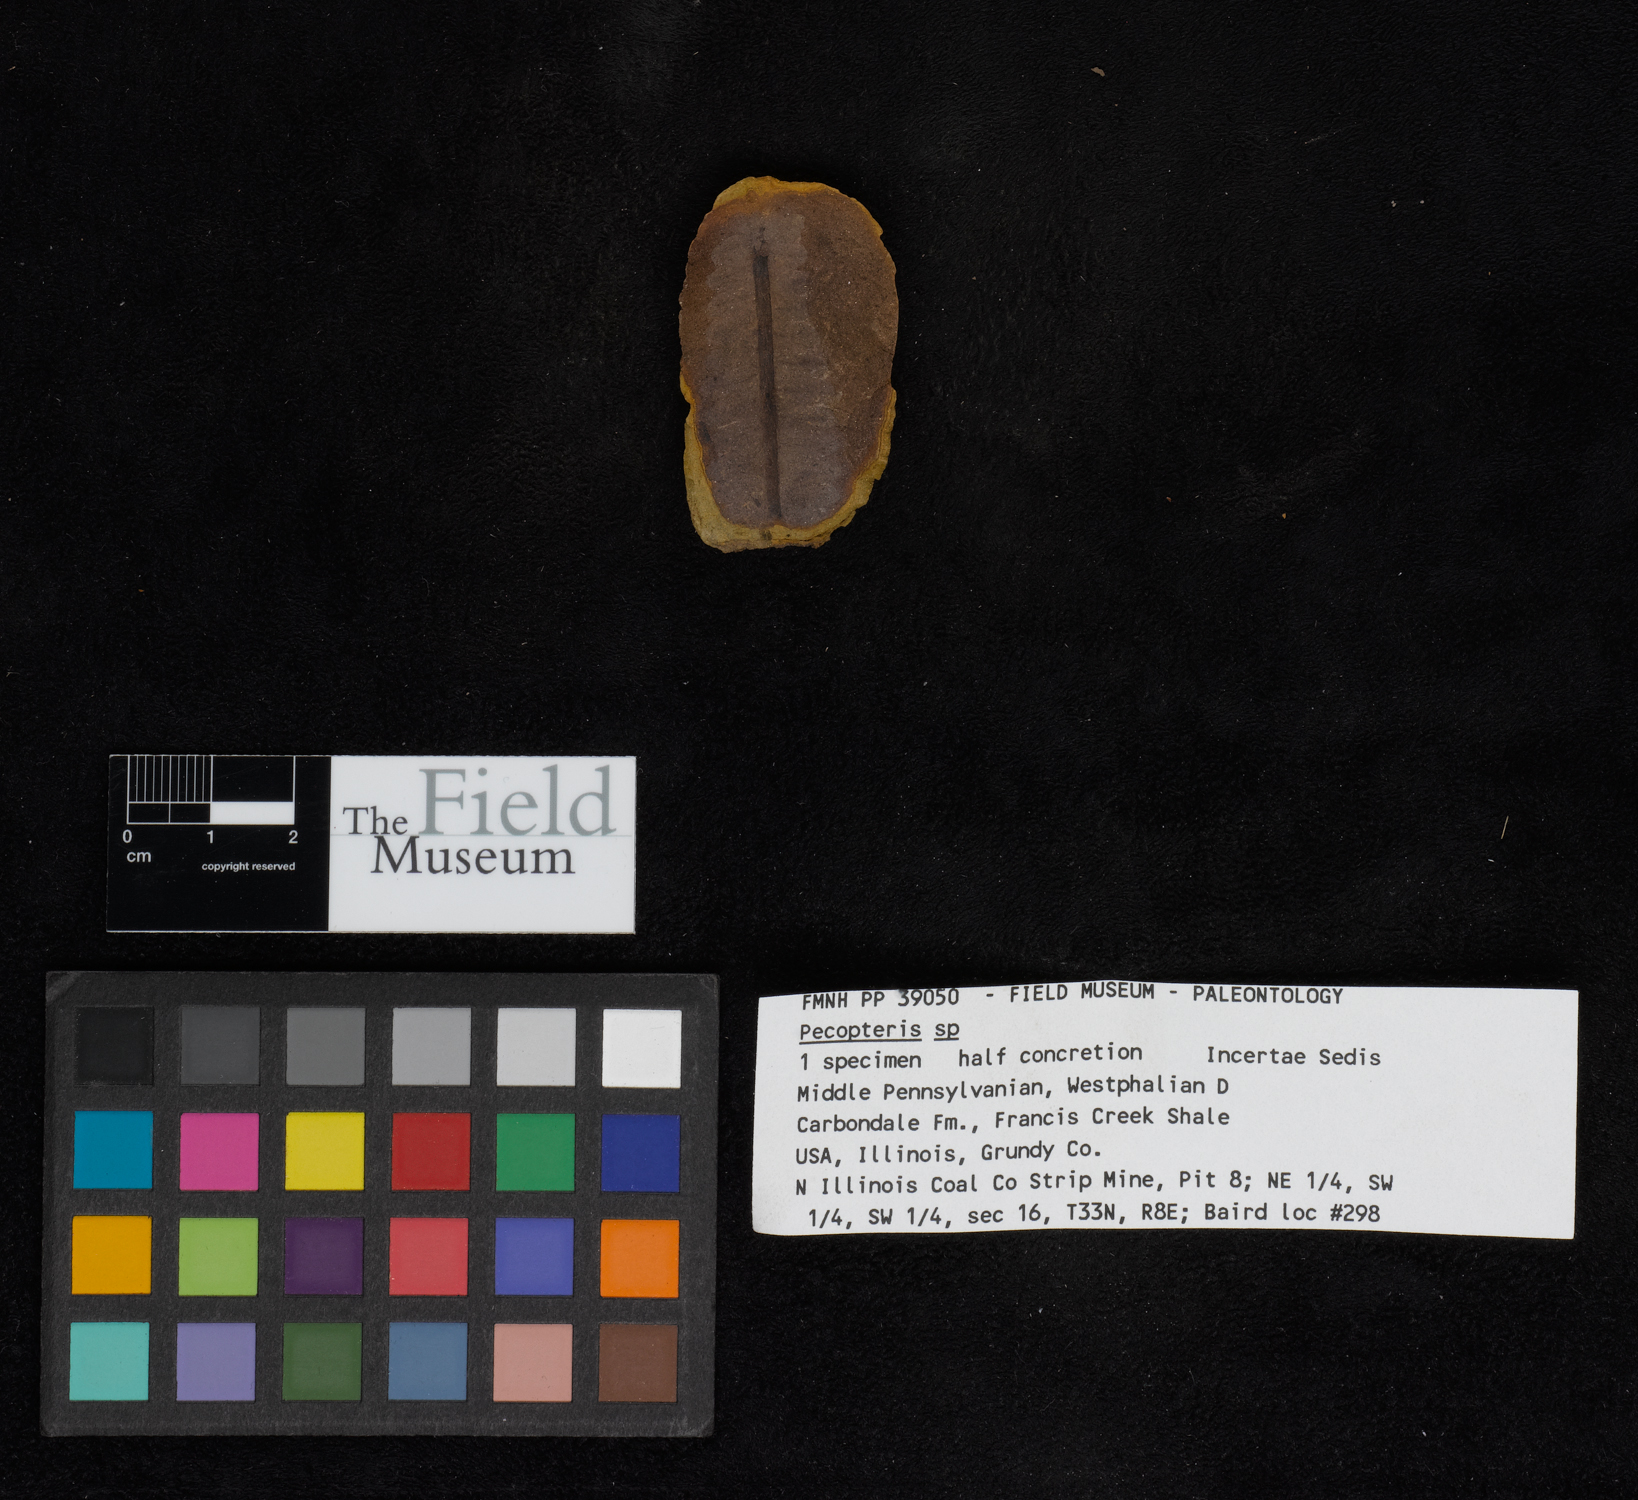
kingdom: Plantae
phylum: Tracheophyta
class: Polypodiopsida
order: Marattiales
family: Asterothecaceae
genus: Pecopteris
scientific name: Pecopteris
